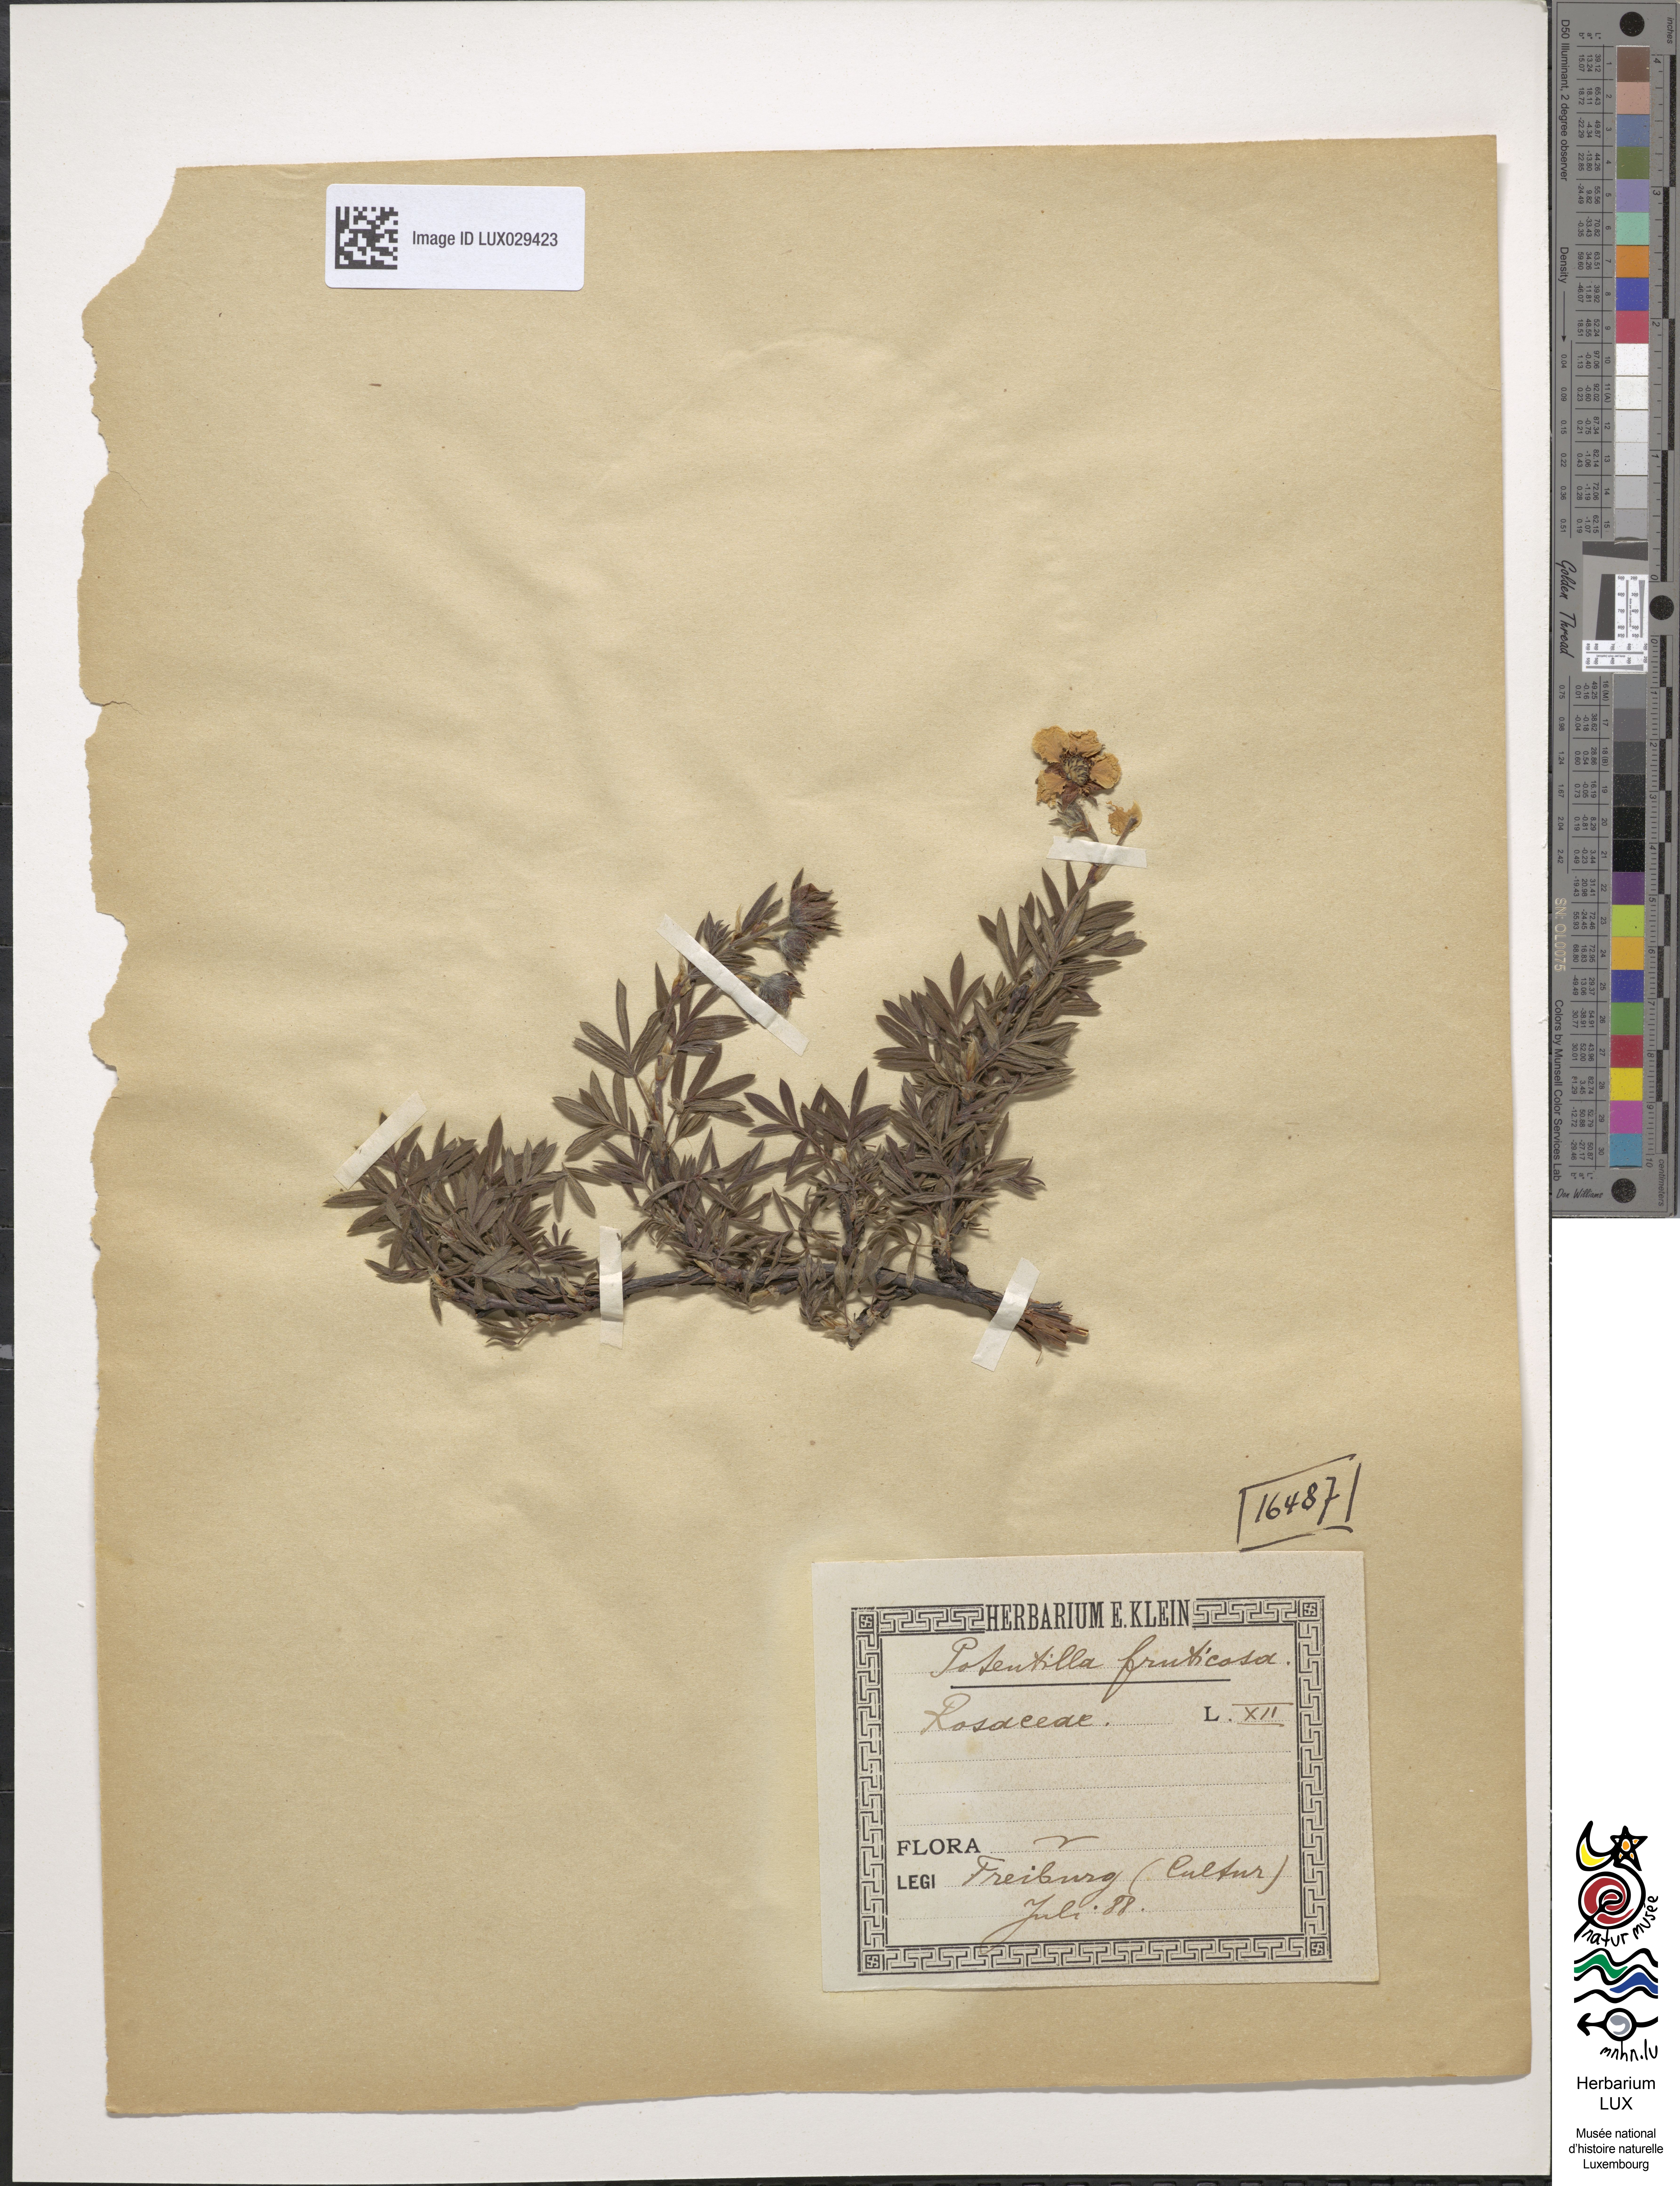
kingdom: Plantae
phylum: Tracheophyta
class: Magnoliopsida
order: Rosales
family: Rosaceae
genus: Dasiphora
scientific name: Dasiphora fruticosa
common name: Shrubby cinquefoil
